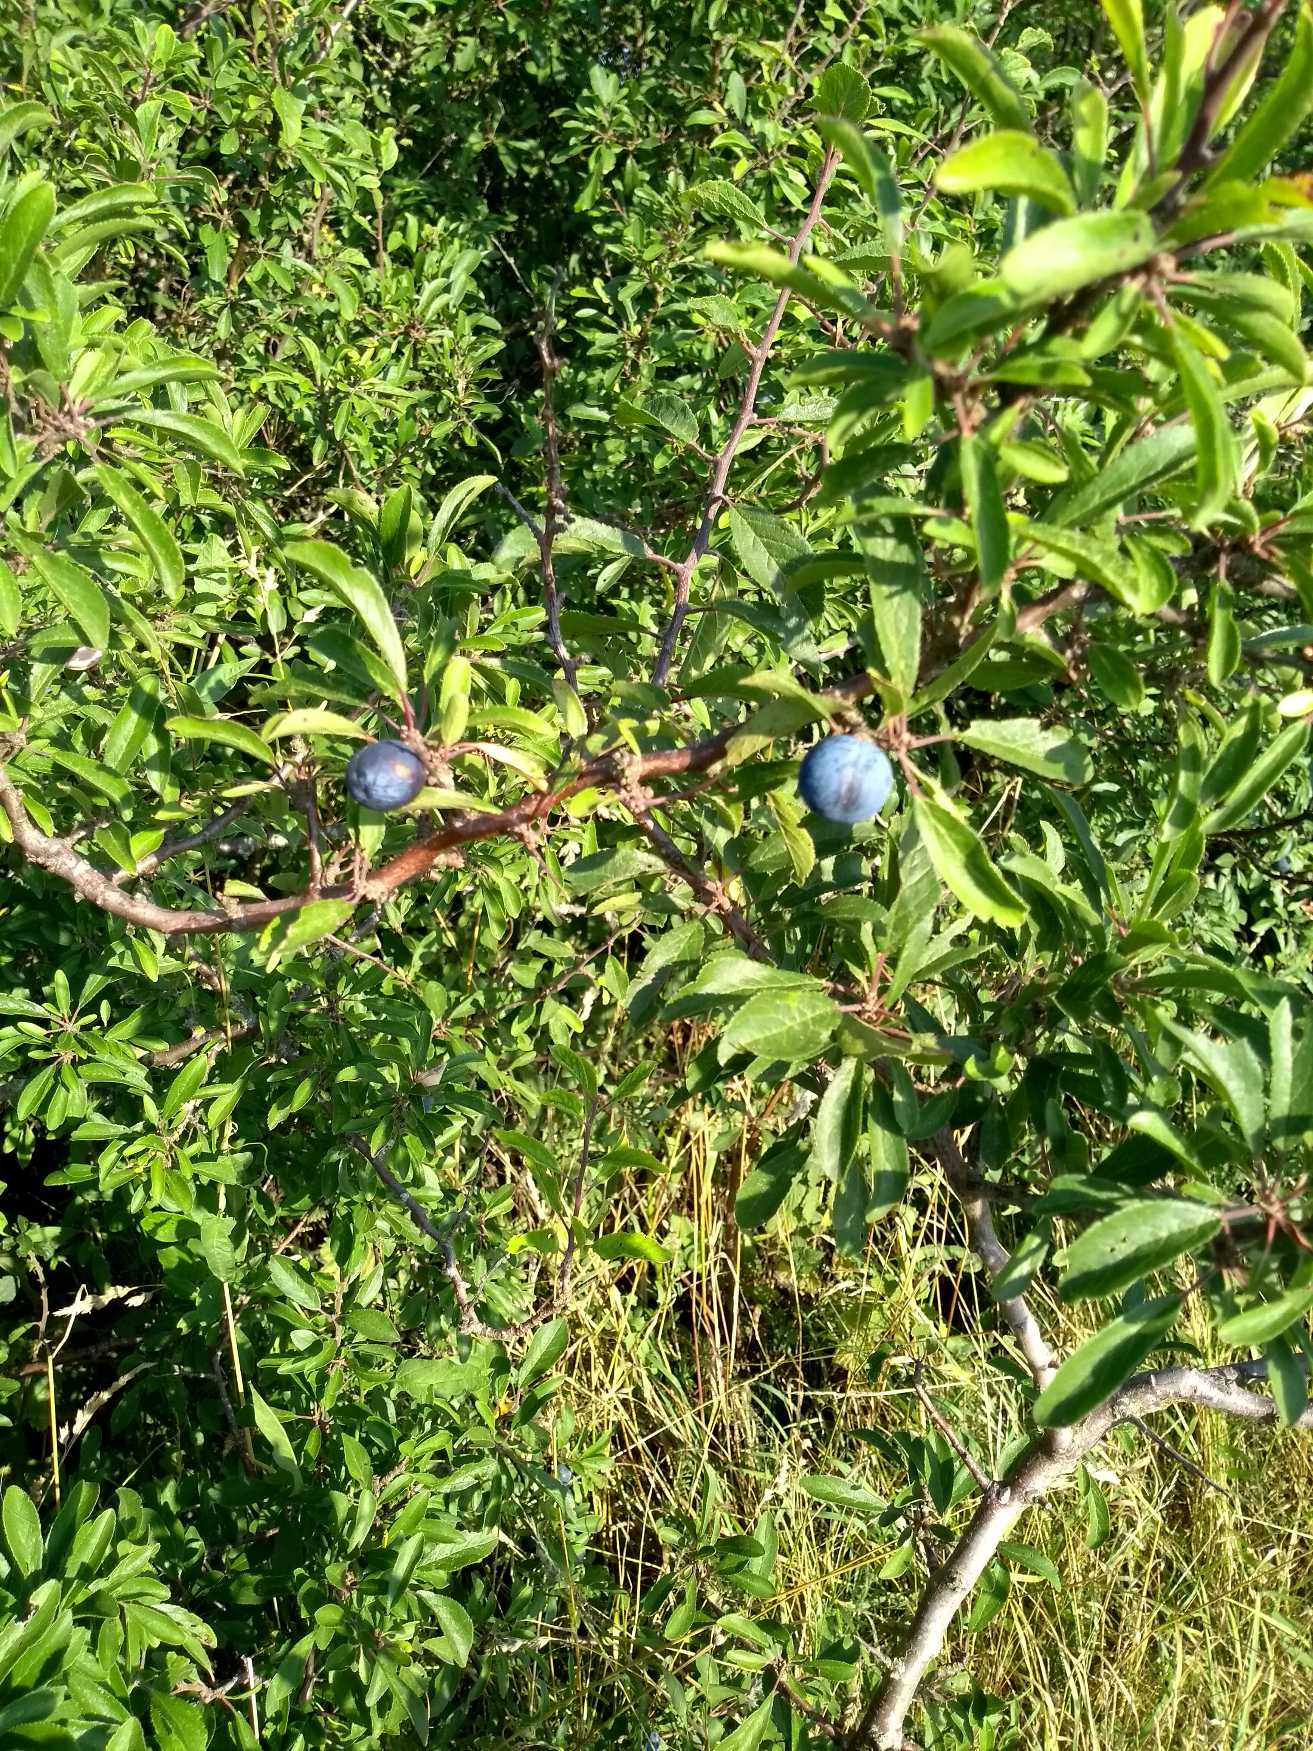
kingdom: Plantae
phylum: Tracheophyta
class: Magnoliopsida
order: Rosales
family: Rosaceae
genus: Prunus
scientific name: Prunus spinosa
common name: Slåen
